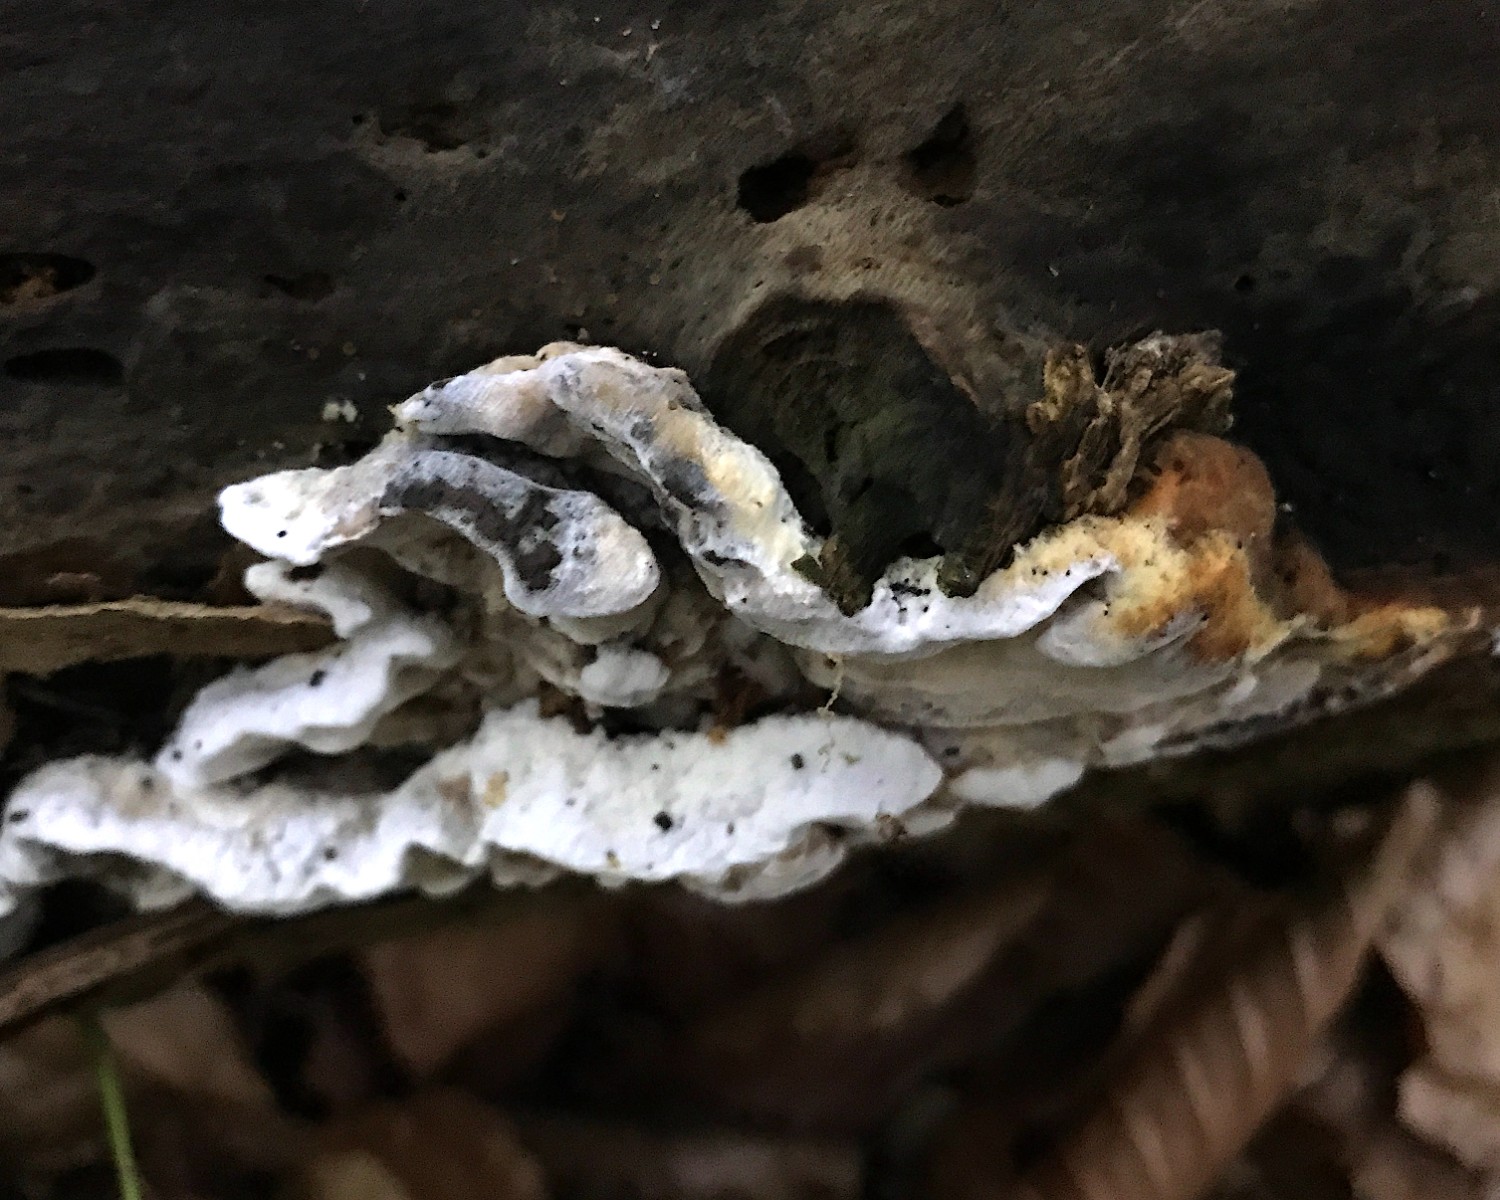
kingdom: Fungi
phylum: Basidiomycota
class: Agaricomycetes
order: Polyporales
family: Incrustoporiaceae
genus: Skeletocutis
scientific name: Skeletocutis nemoralis
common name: stor krystalporesvamp
